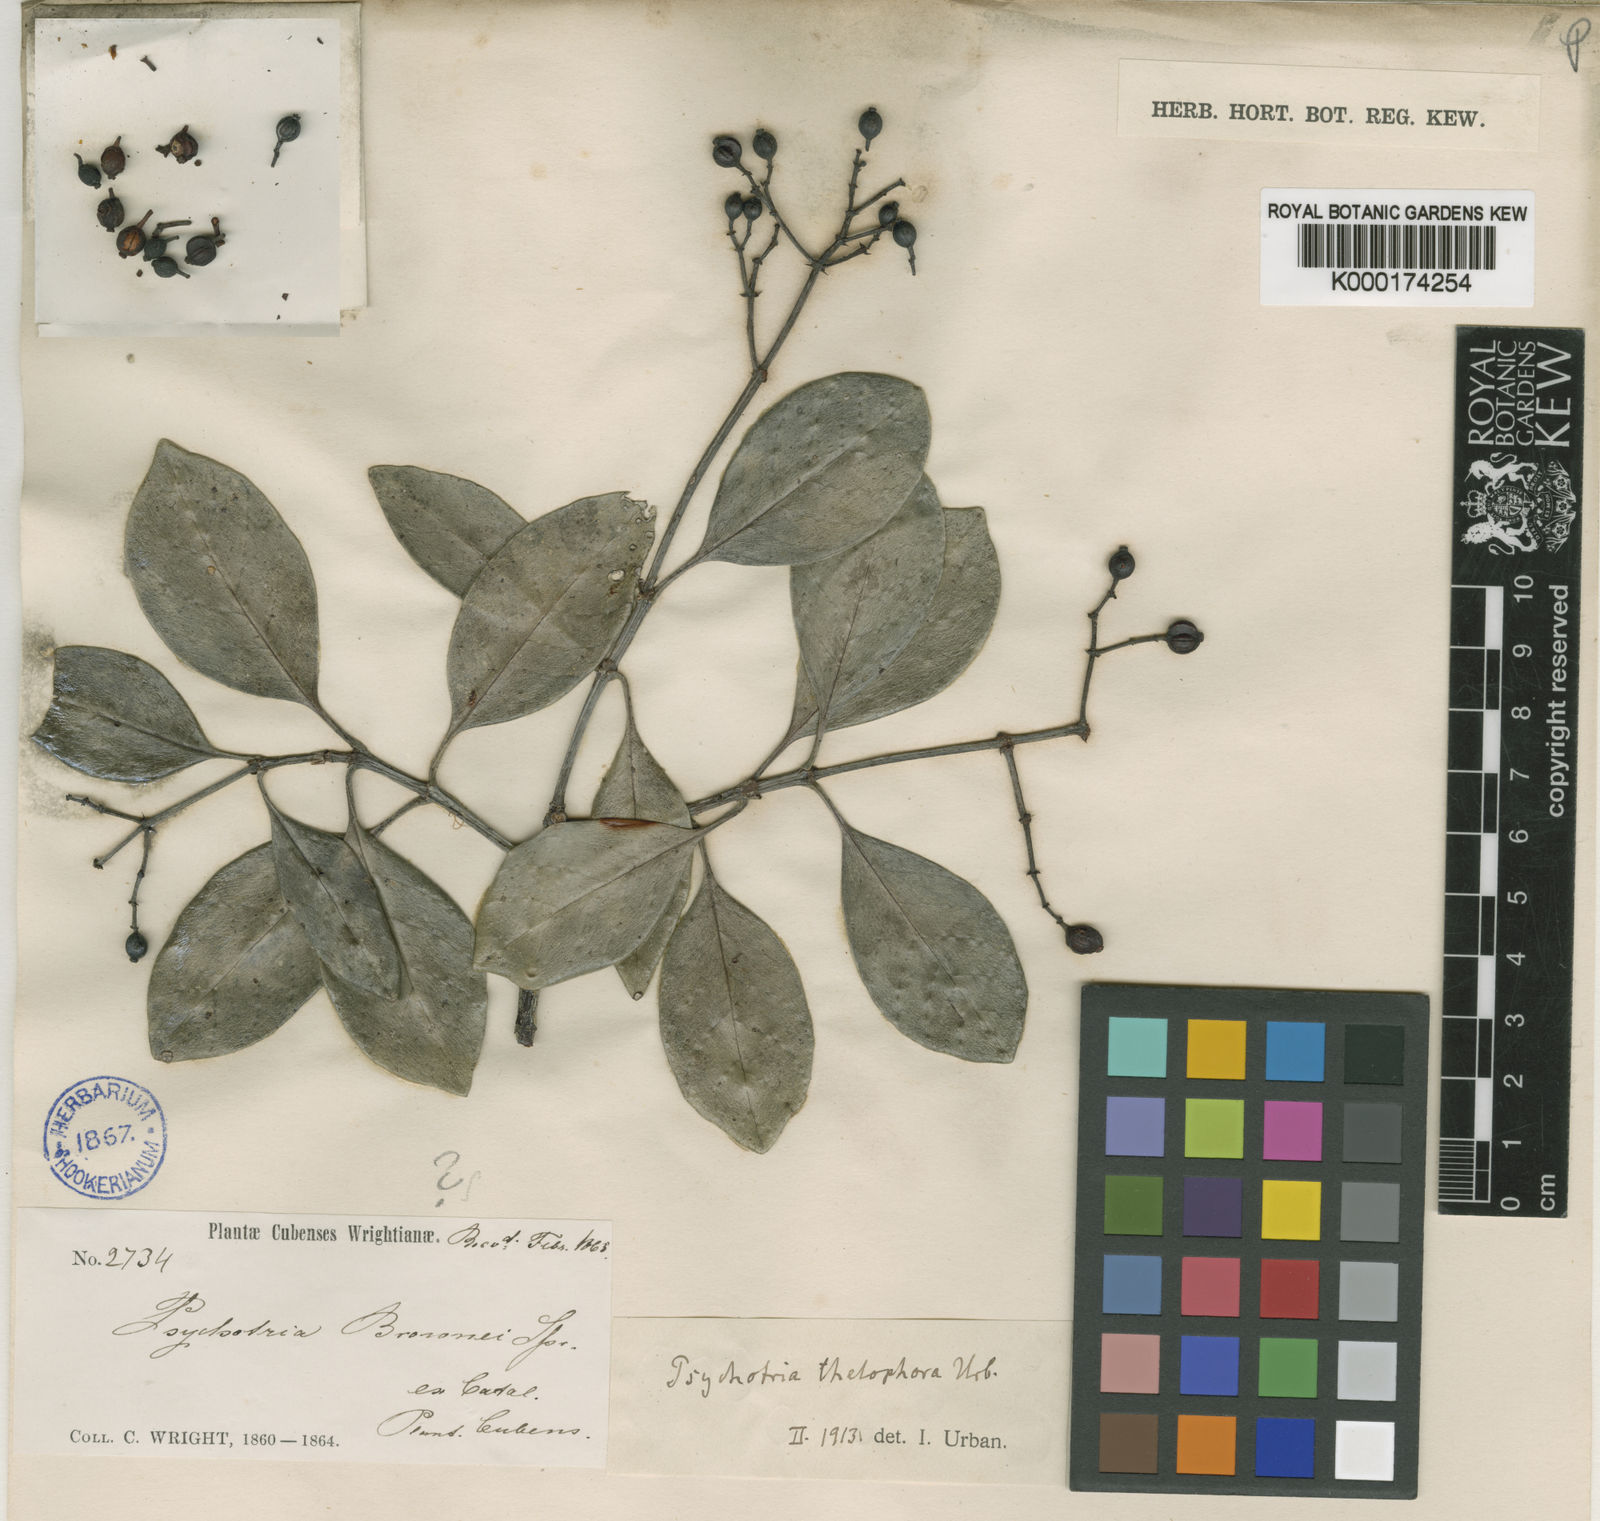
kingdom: Plantae
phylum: Tracheophyta
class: Magnoliopsida
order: Gentianales
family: Rubiaceae
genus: Psychotria
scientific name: Psychotria thelophora
